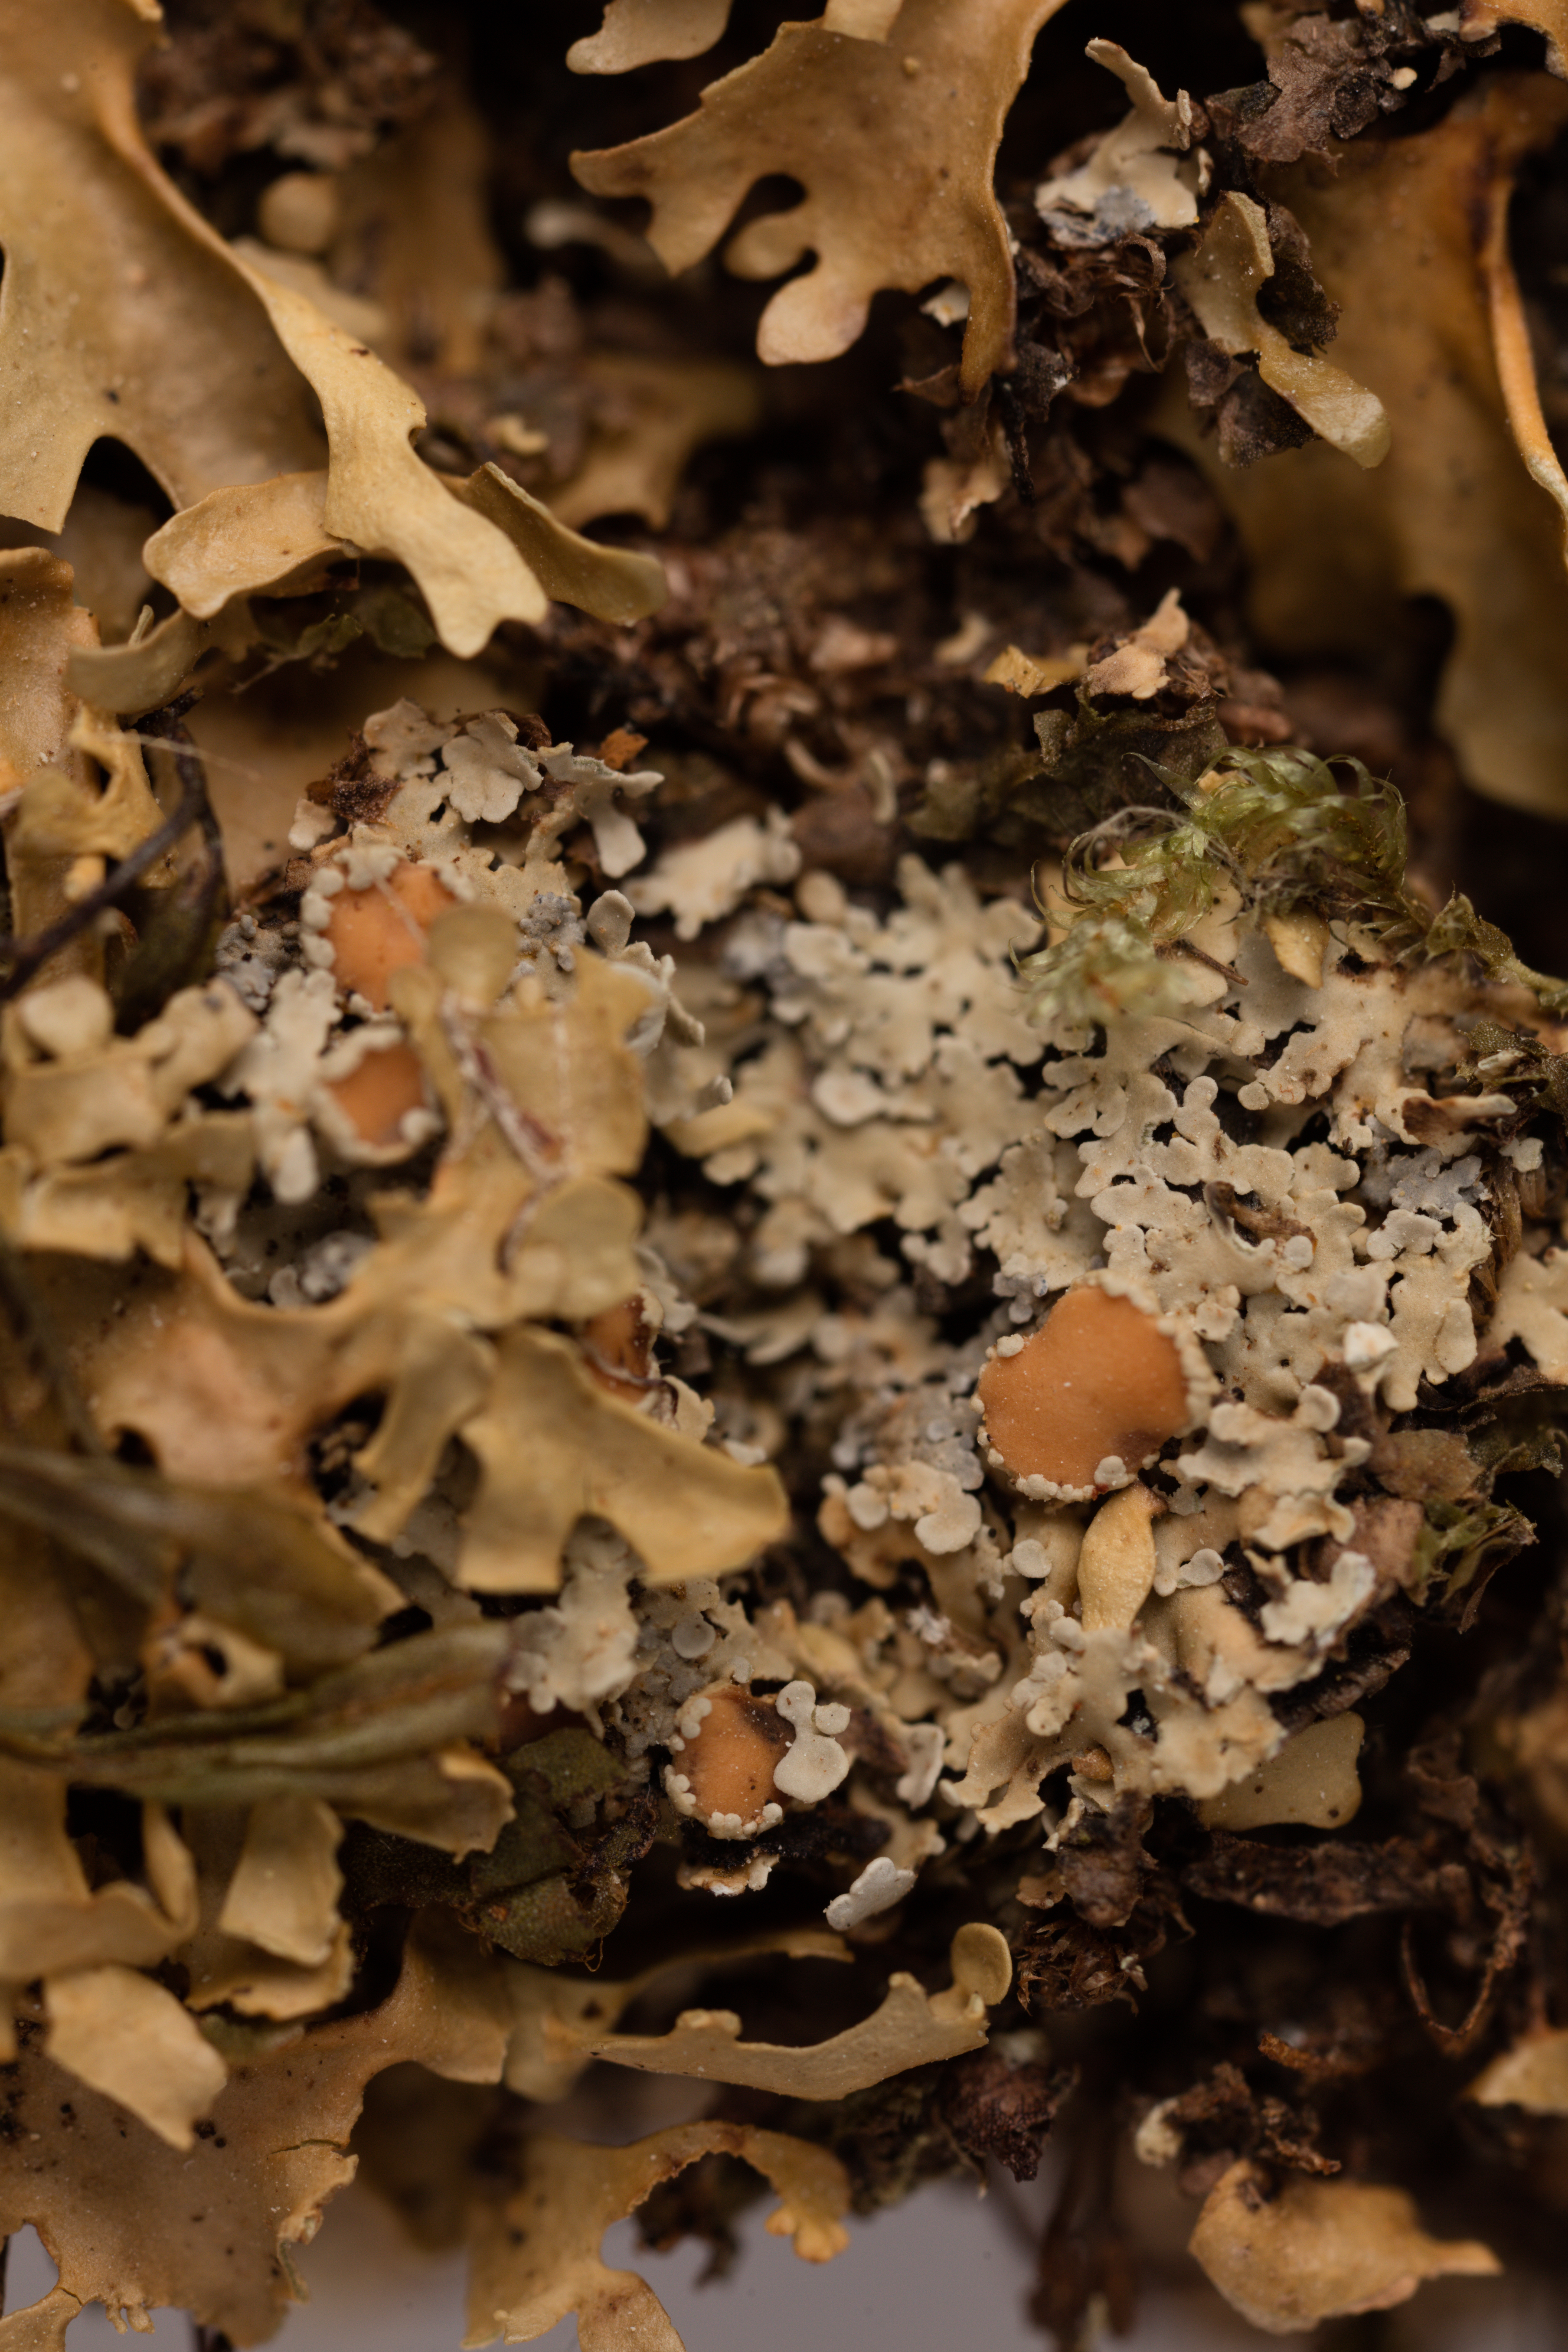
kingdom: Fungi
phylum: Ascomycota
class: Lecanoromycetes
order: Peltigerales
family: Lobariaceae
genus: Sticta
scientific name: Sticta
